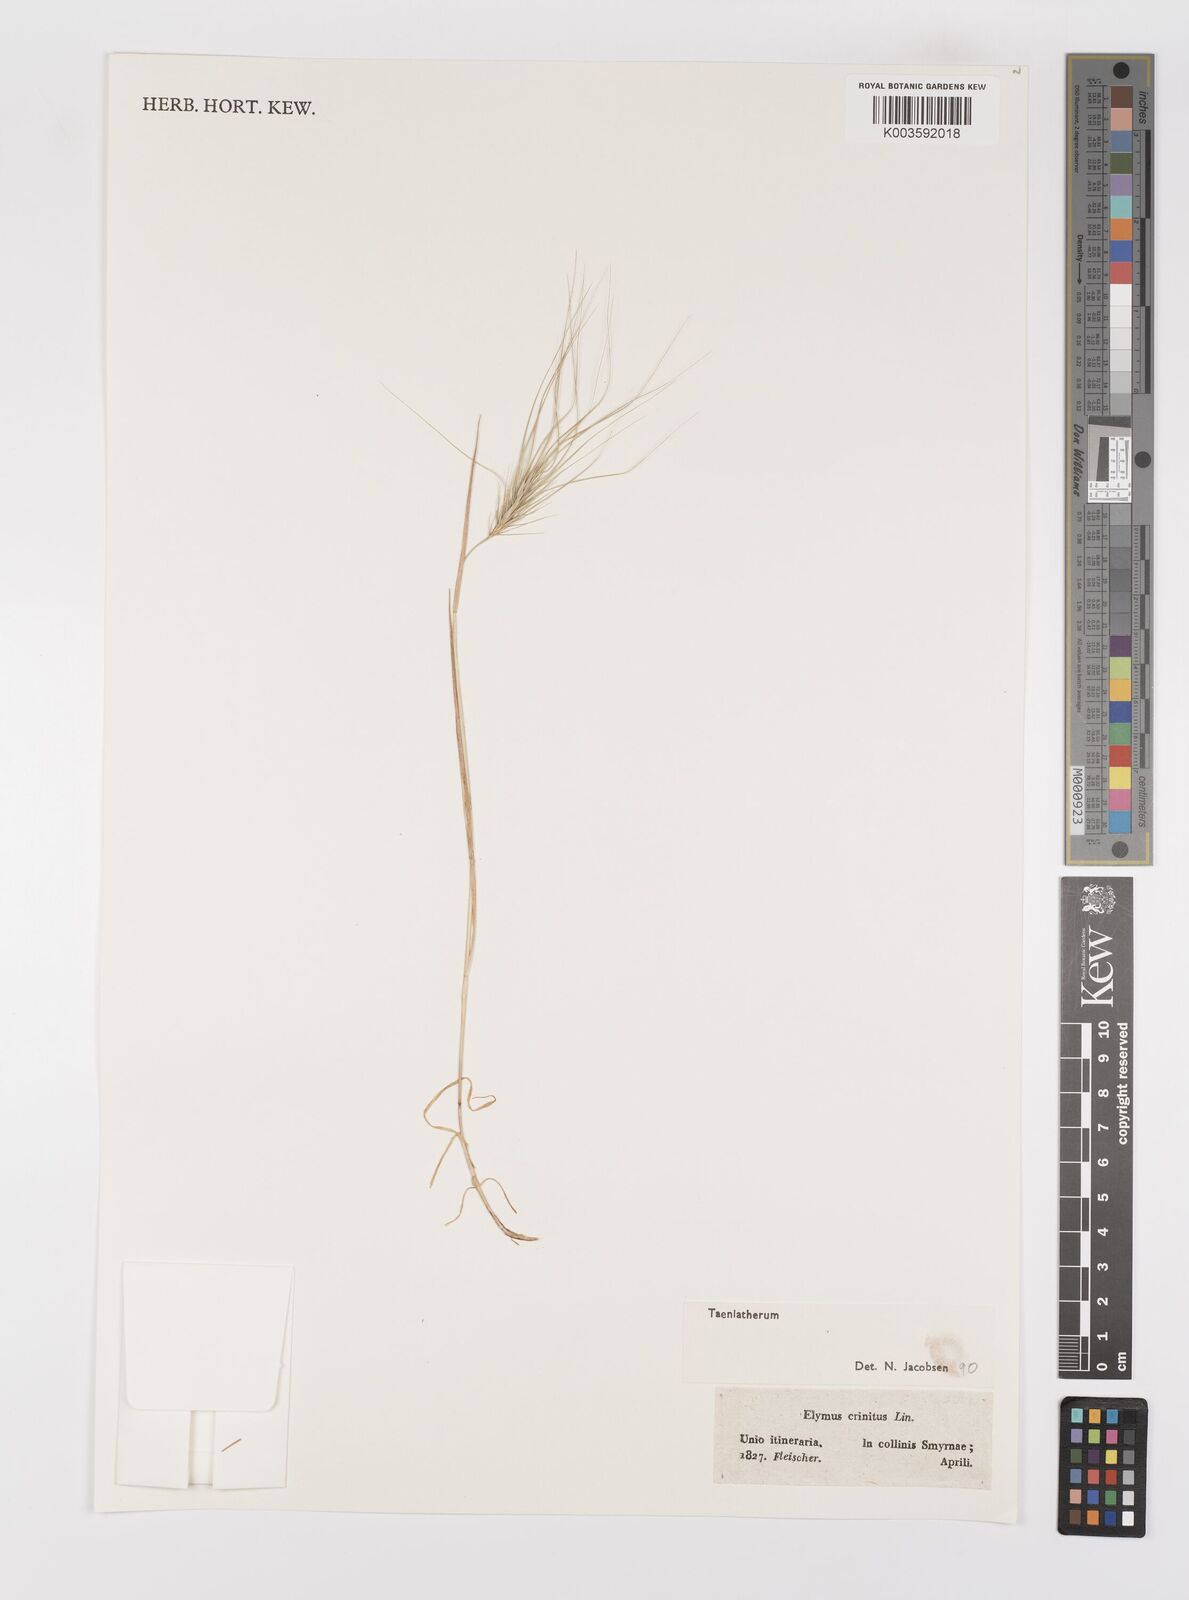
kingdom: Plantae
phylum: Tracheophyta
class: Liliopsida
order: Poales
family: Poaceae
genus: Taeniatherum
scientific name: Taeniatherum caput-medusae
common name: Medusahead
